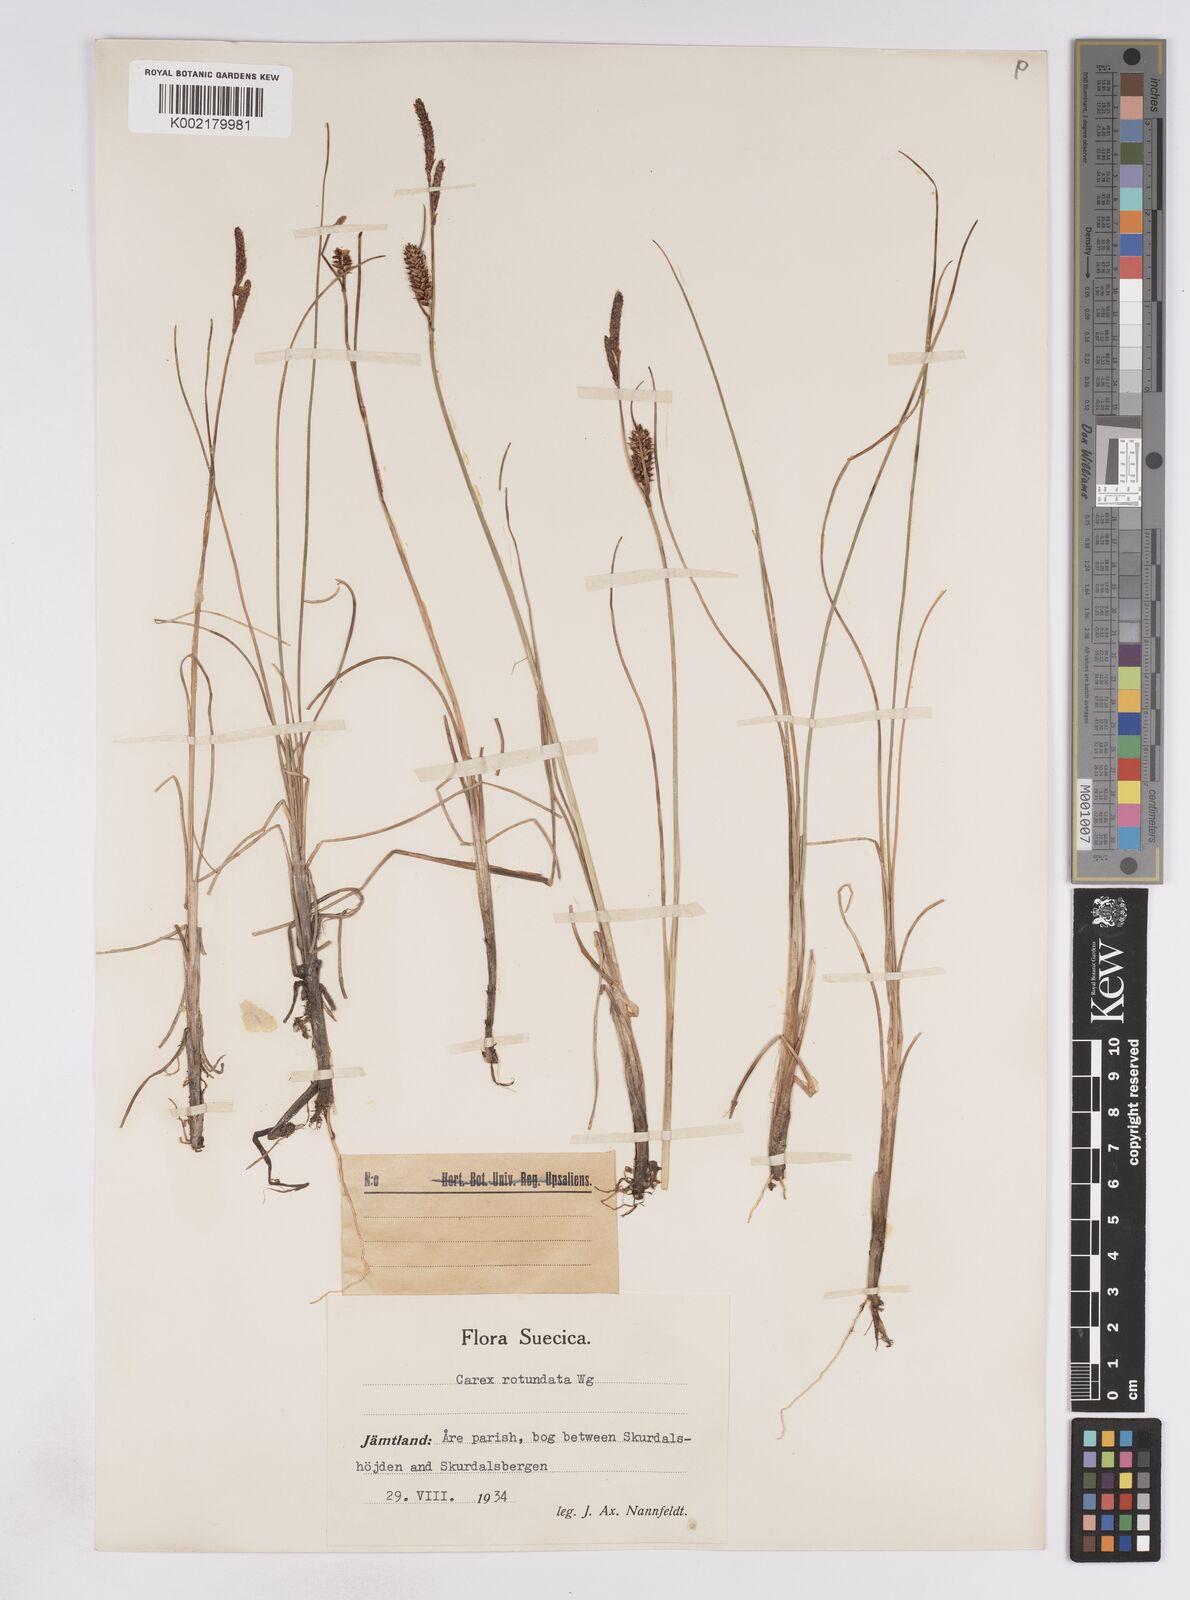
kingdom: Plantae
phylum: Tracheophyta
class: Liliopsida
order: Poales
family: Cyperaceae
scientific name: Cyperaceae
